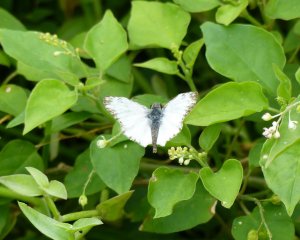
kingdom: Animalia
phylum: Arthropoda
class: Insecta
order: Lepidoptera
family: Hesperiidae
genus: Heliopetes
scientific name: Heliopetes macaira
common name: Turk's-cap White-Skipper
